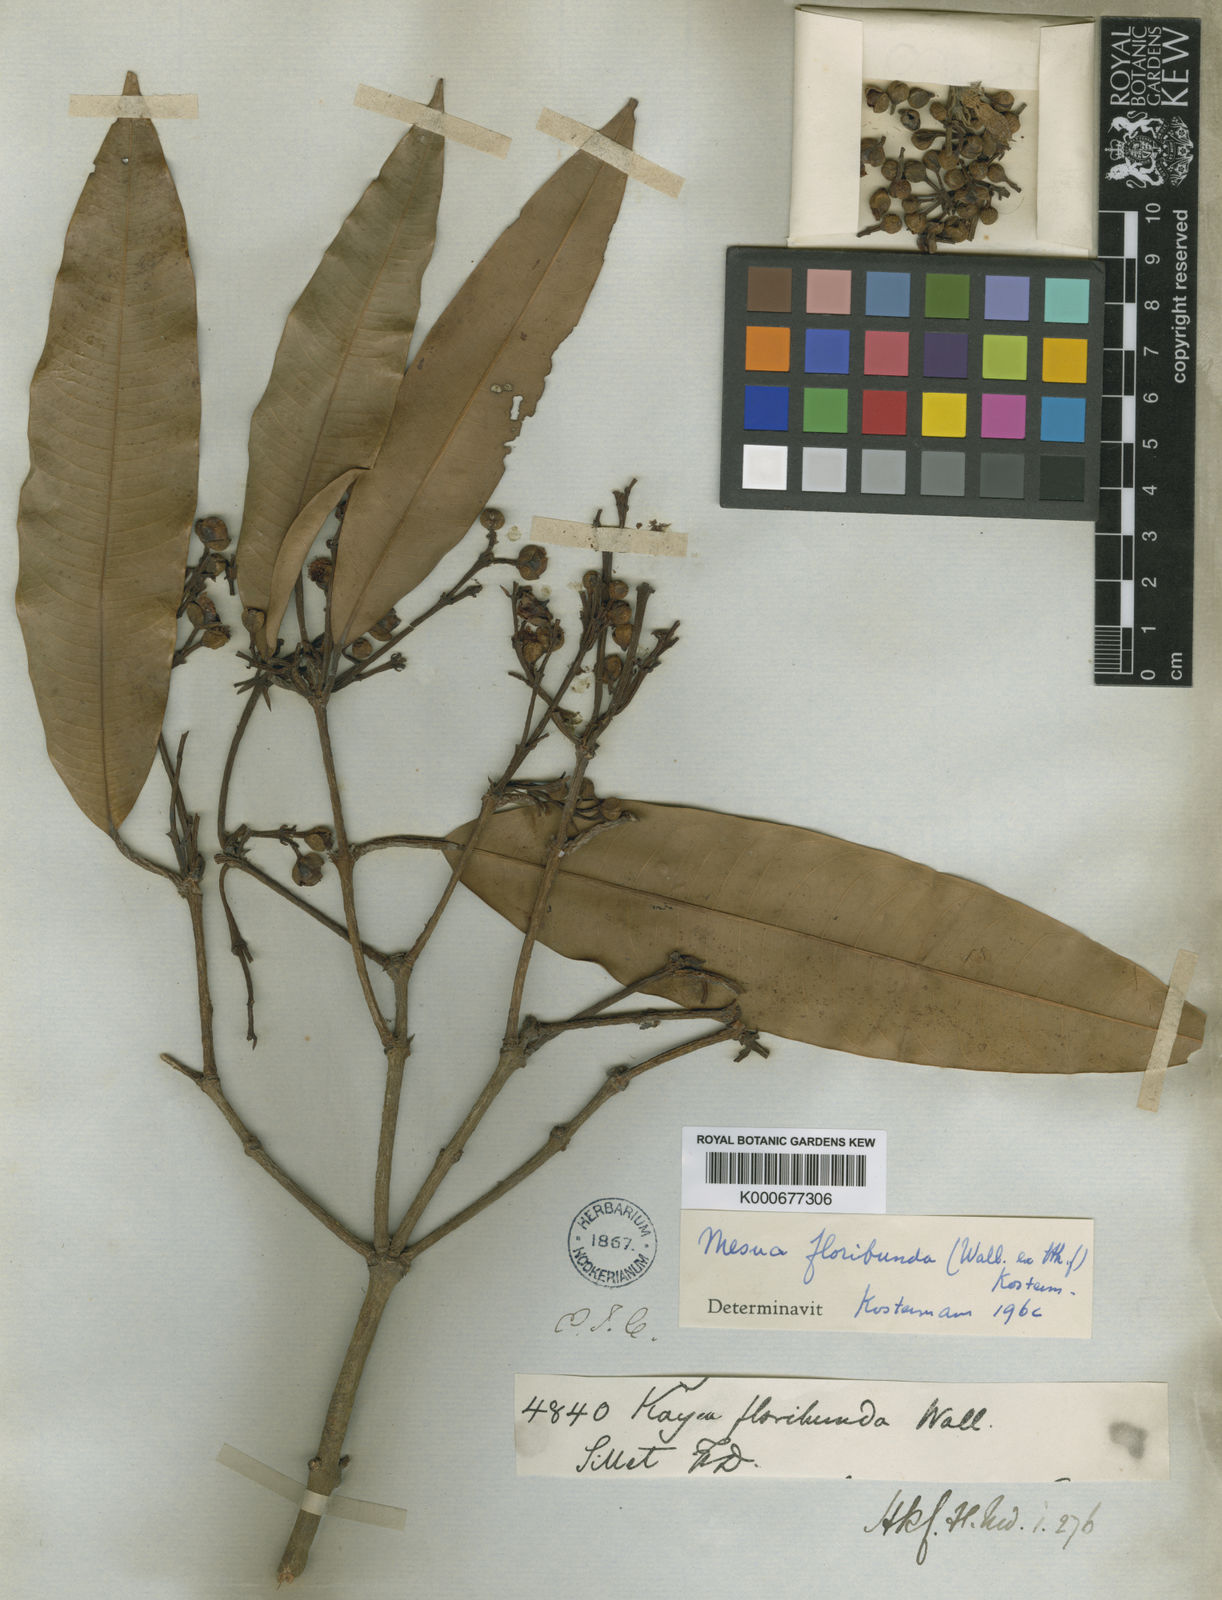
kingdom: Plantae
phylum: Tracheophyta
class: Magnoliopsida
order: Malpighiales
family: Calophyllaceae
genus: Kayea
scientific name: Kayea floribunda
